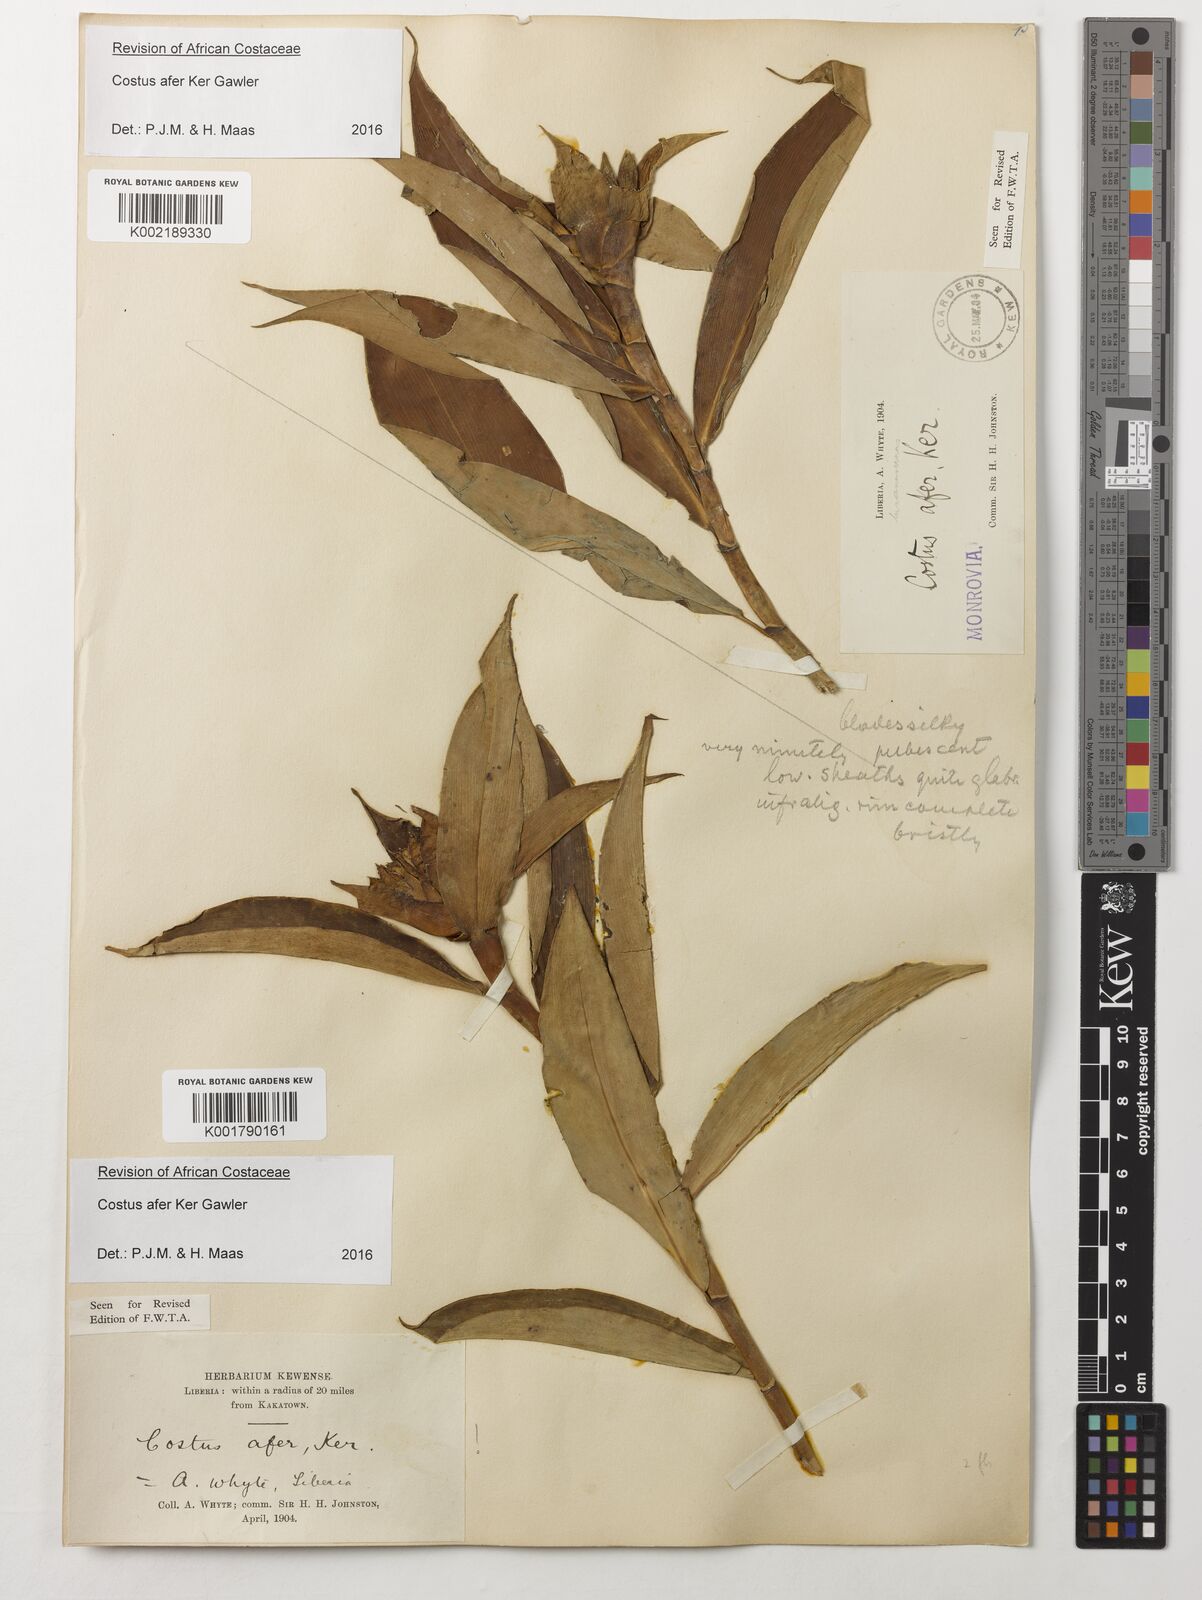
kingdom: Plantae
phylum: Tracheophyta
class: Liliopsida
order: Zingiberales
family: Costaceae
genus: Costus
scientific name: Costus afer
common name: Spiral-ginger
